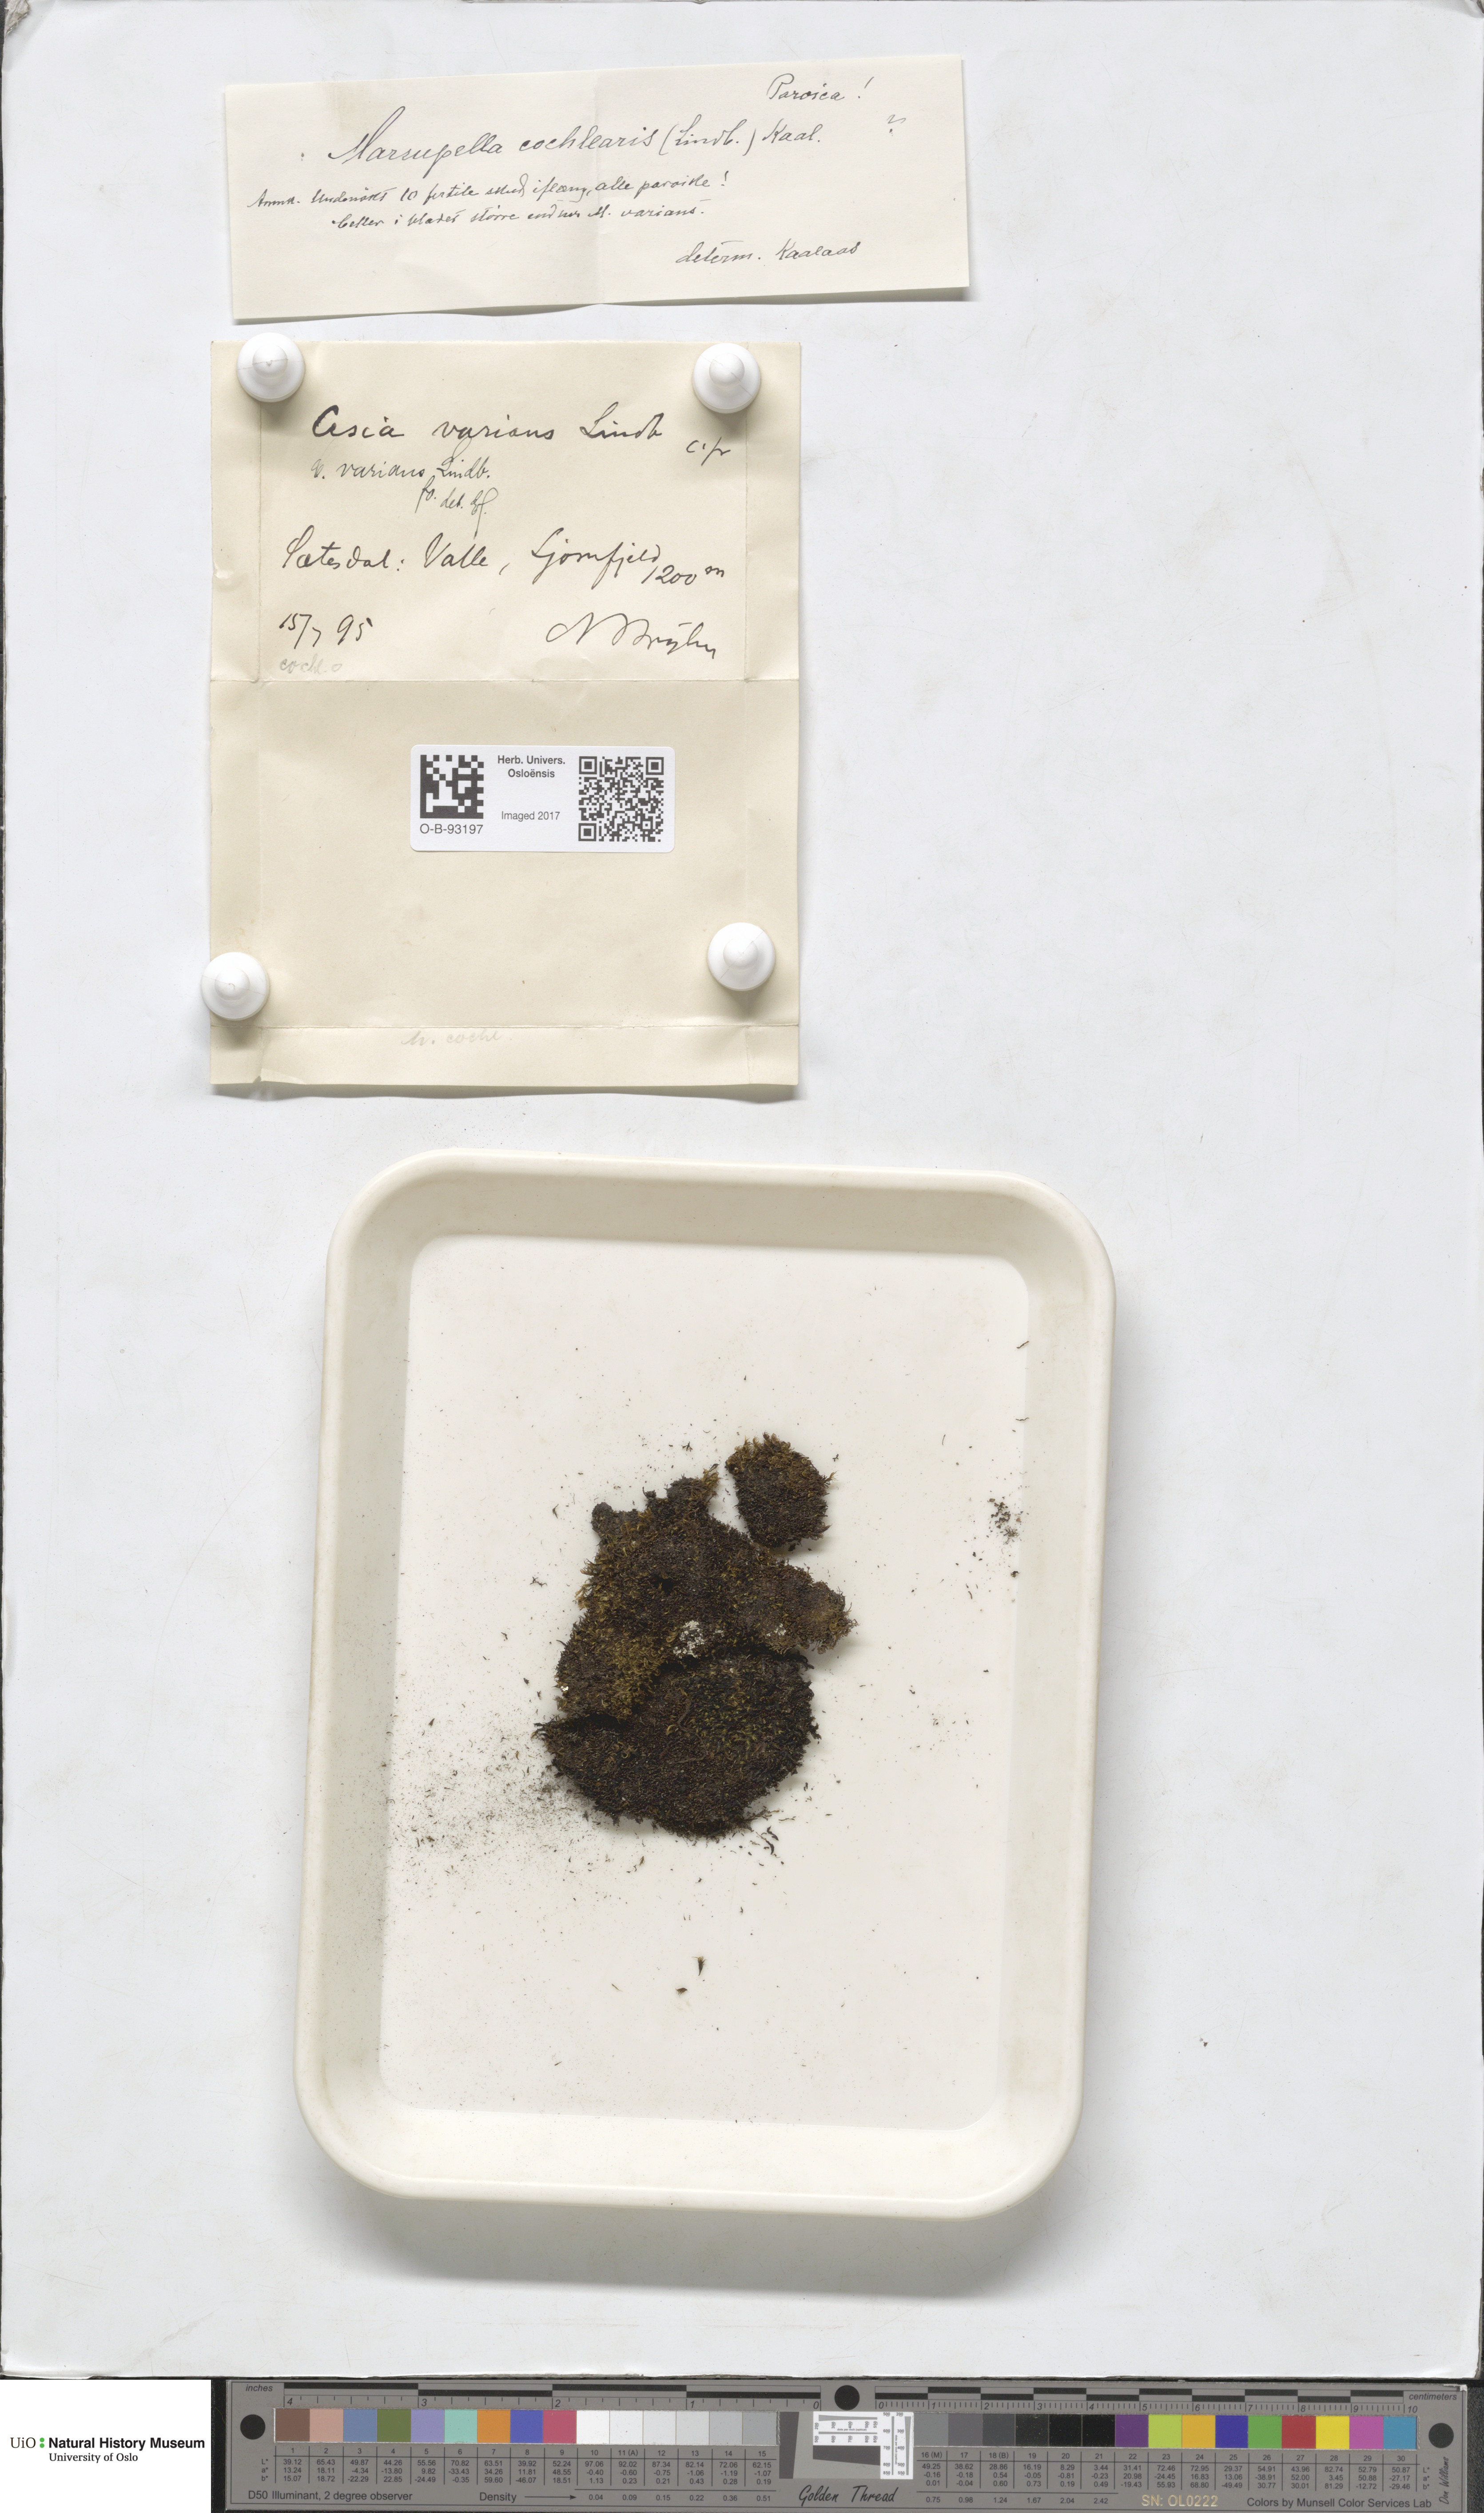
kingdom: Plantae
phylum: Marchantiophyta
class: Jungermanniopsida
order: Jungermanniales
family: Gymnomitriaceae
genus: Gymnomitrion
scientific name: Gymnomitrion brevissimum
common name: Snow rustwort
